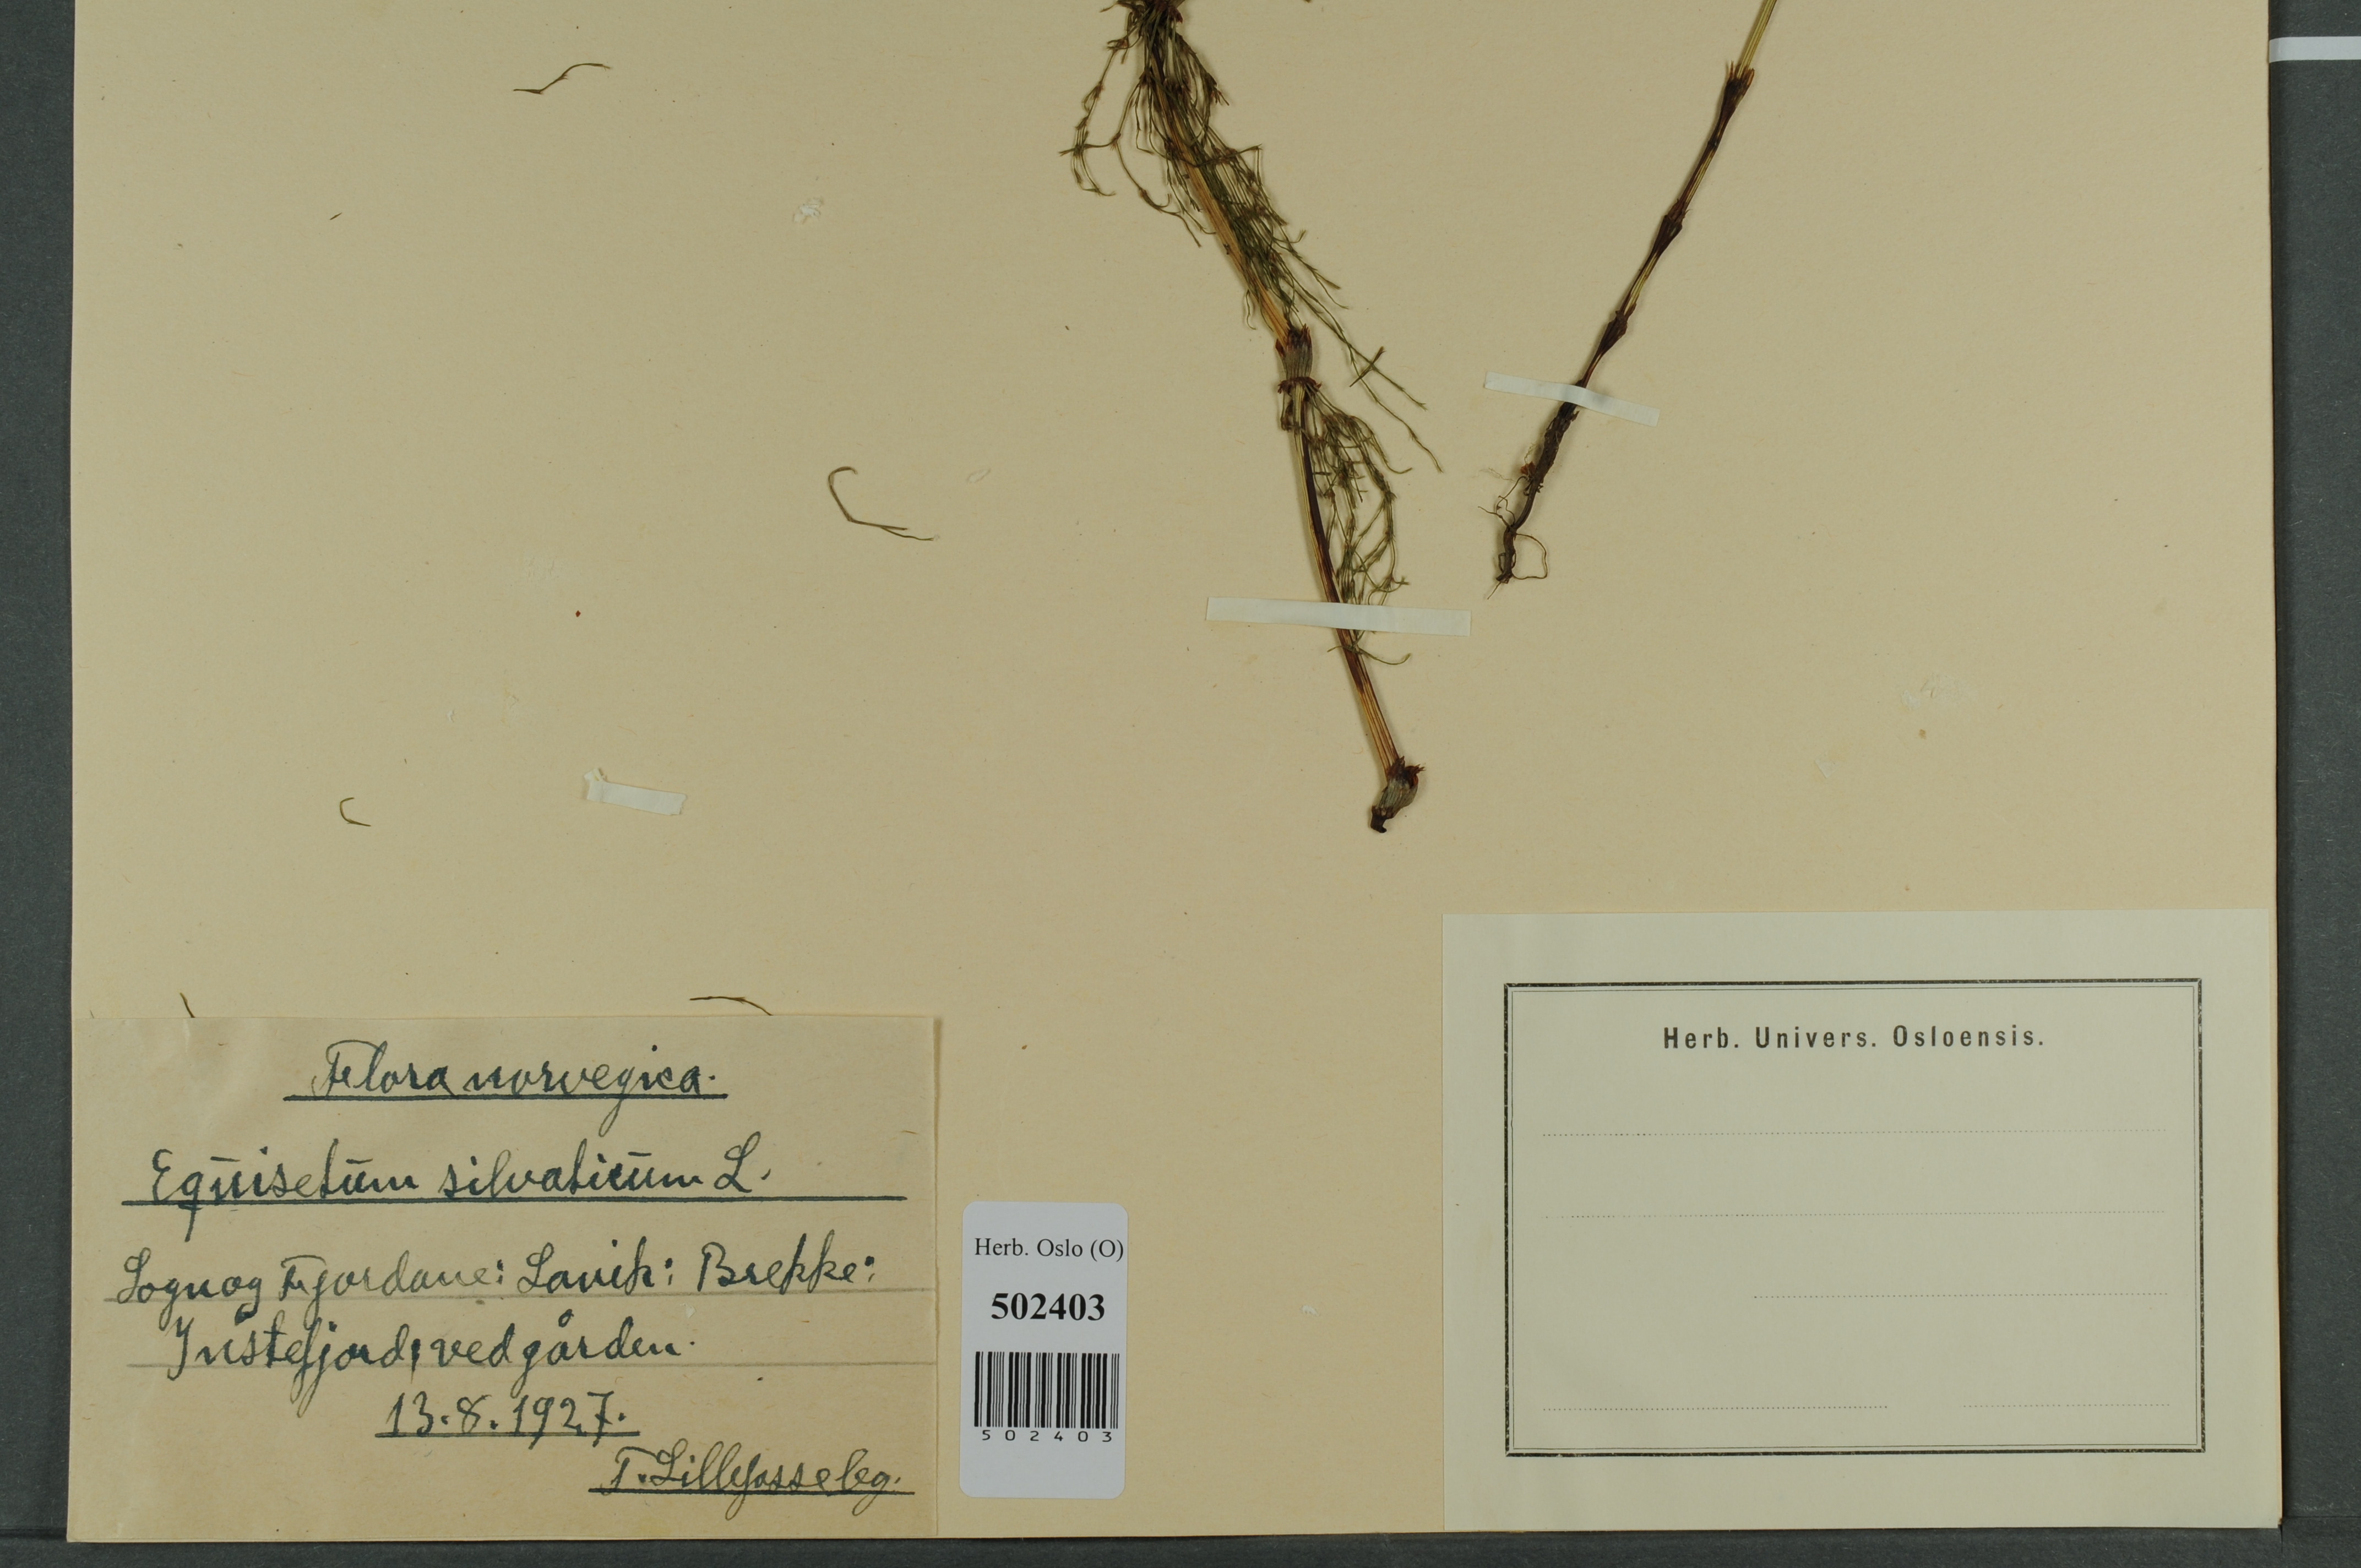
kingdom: Plantae
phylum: Tracheophyta
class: Polypodiopsida
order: Equisetales
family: Equisetaceae
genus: Equisetum
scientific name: Equisetum sylvaticum
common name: Wood horsetail
